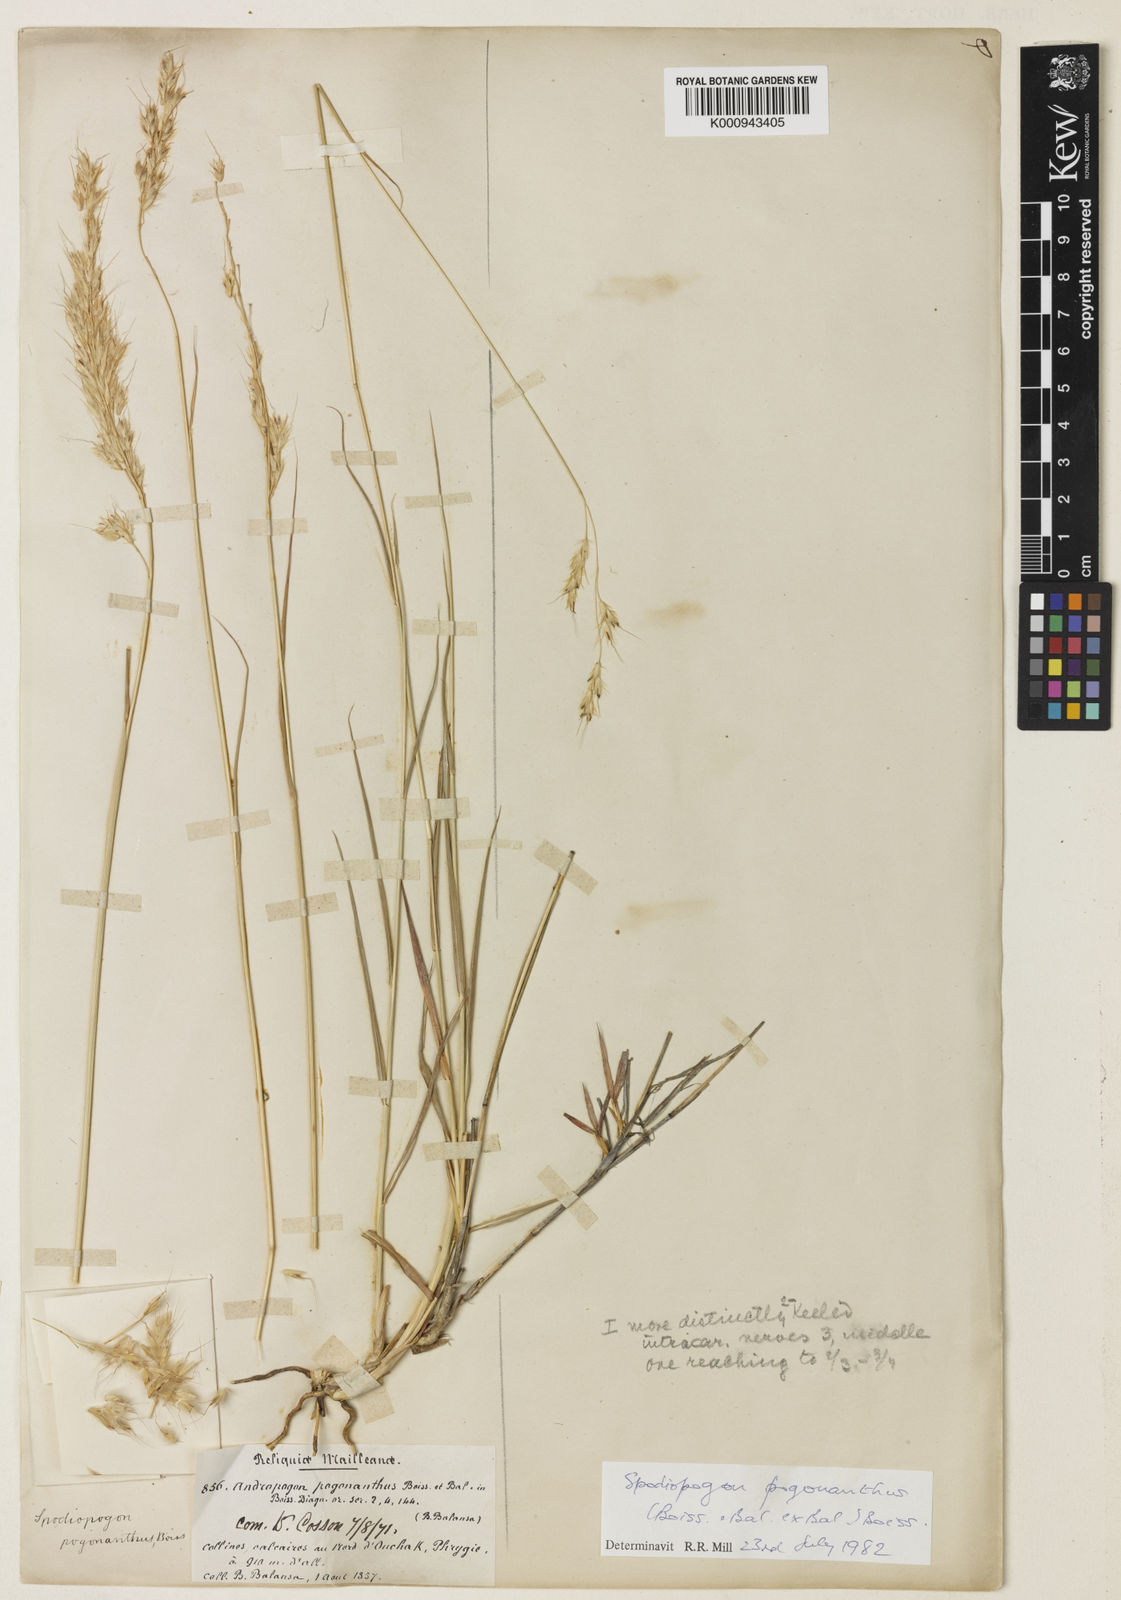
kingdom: Plantae
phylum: Tracheophyta
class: Liliopsida
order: Poales
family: Poaceae
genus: Spodiopogon
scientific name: Spodiopogon pogonanthus
